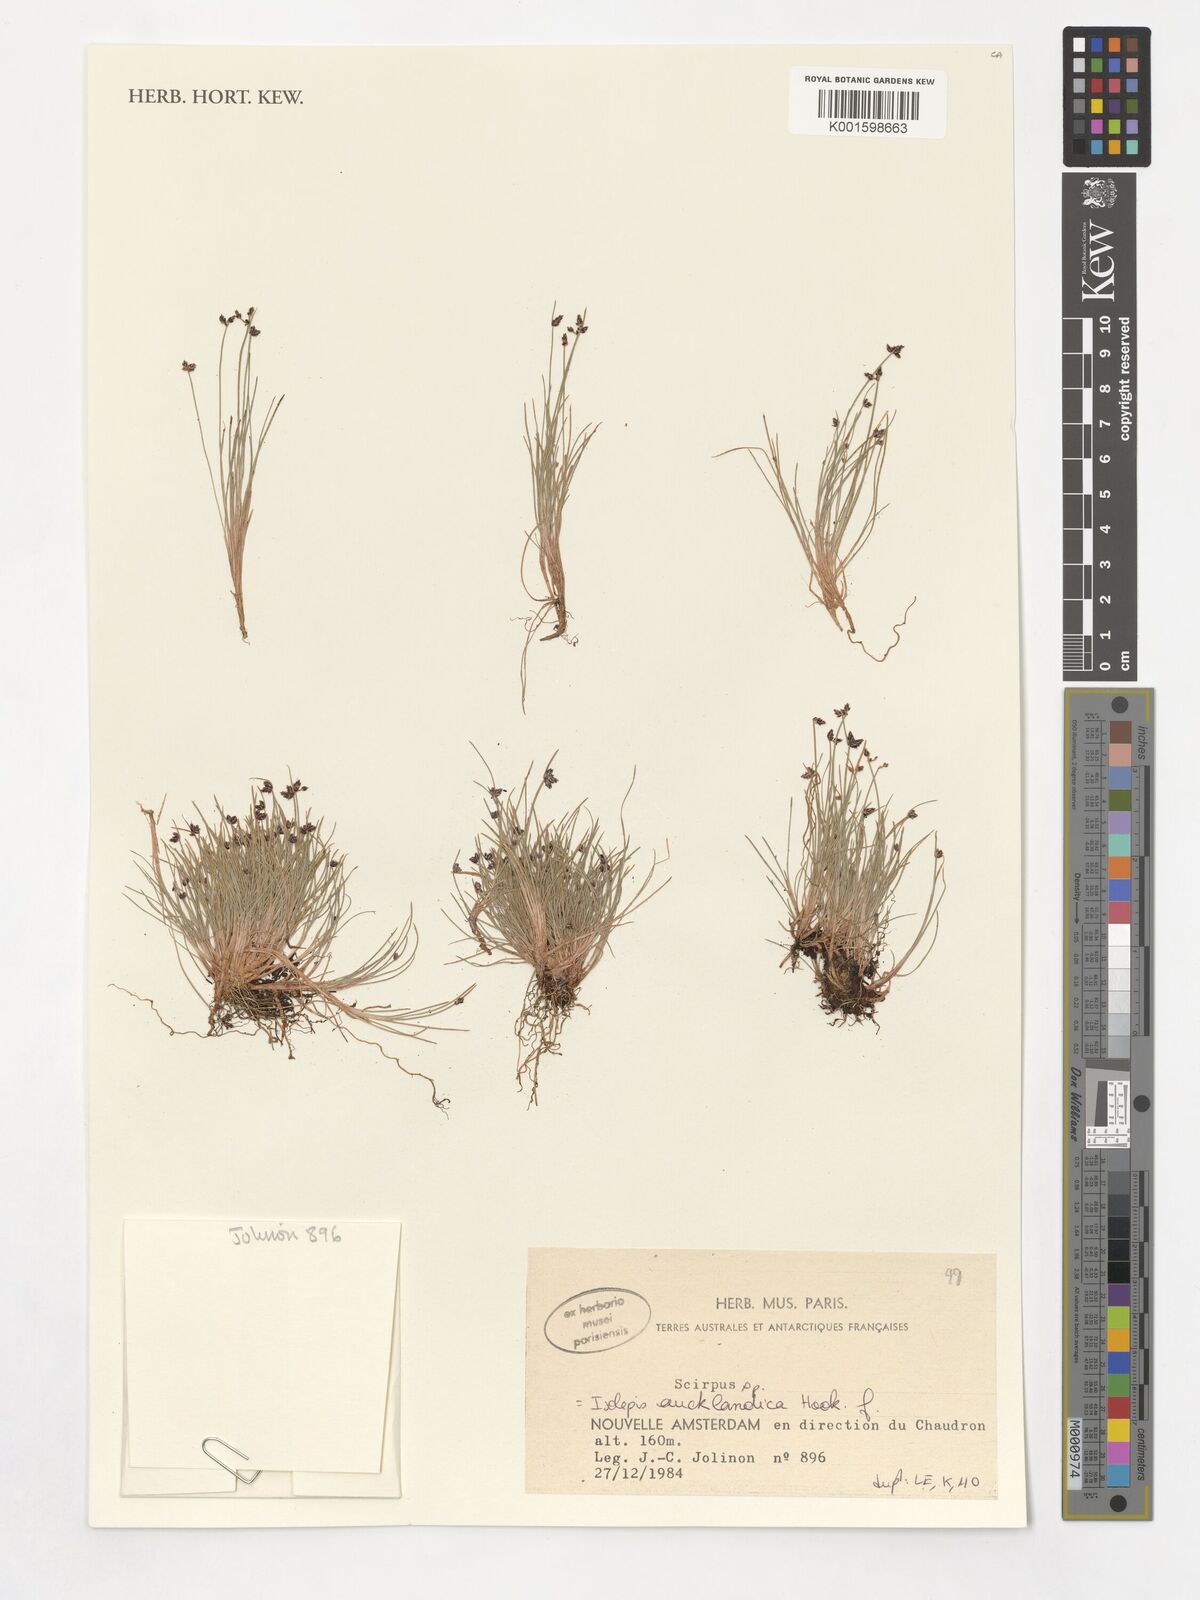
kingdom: Plantae
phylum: Tracheophyta
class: Liliopsida
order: Poales
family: Cyperaceae
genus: Isolepis
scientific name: Isolepis aucklandica
